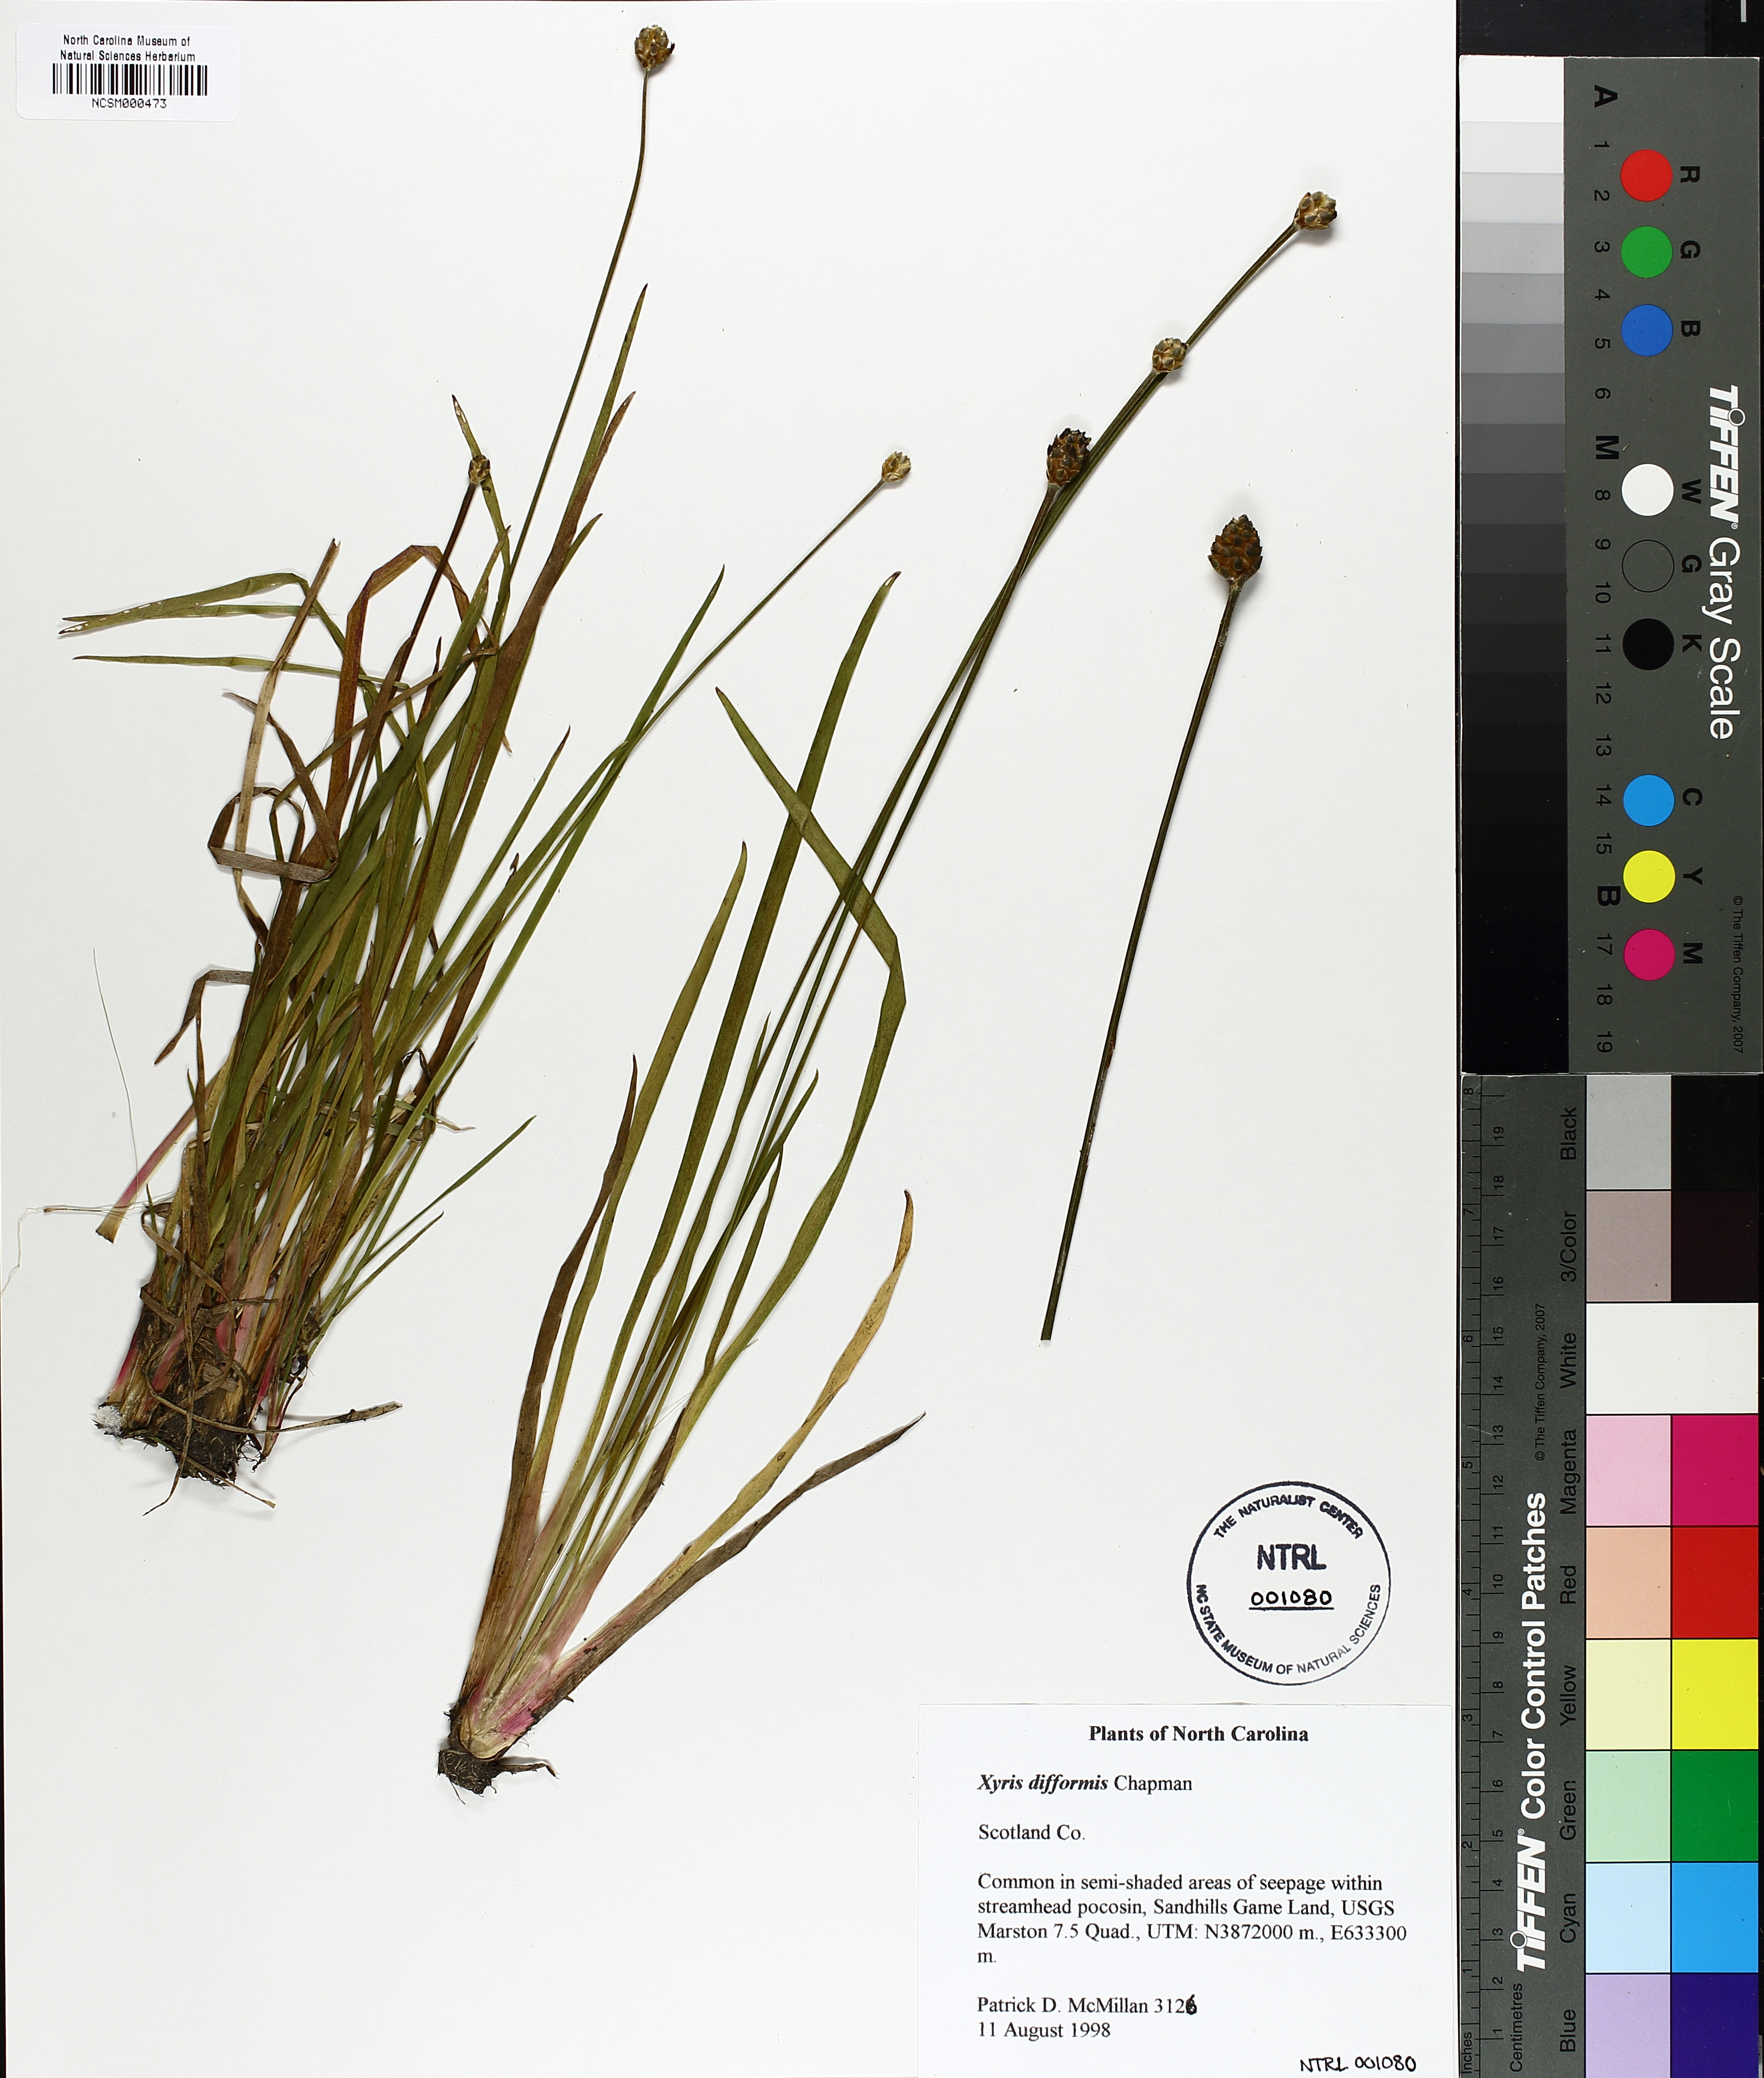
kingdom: Plantae
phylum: Tracheophyta
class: Liliopsida
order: Poales
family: Xyridaceae
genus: Xyris
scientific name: Xyris difformis
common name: Bog yellow-eyed-grass
